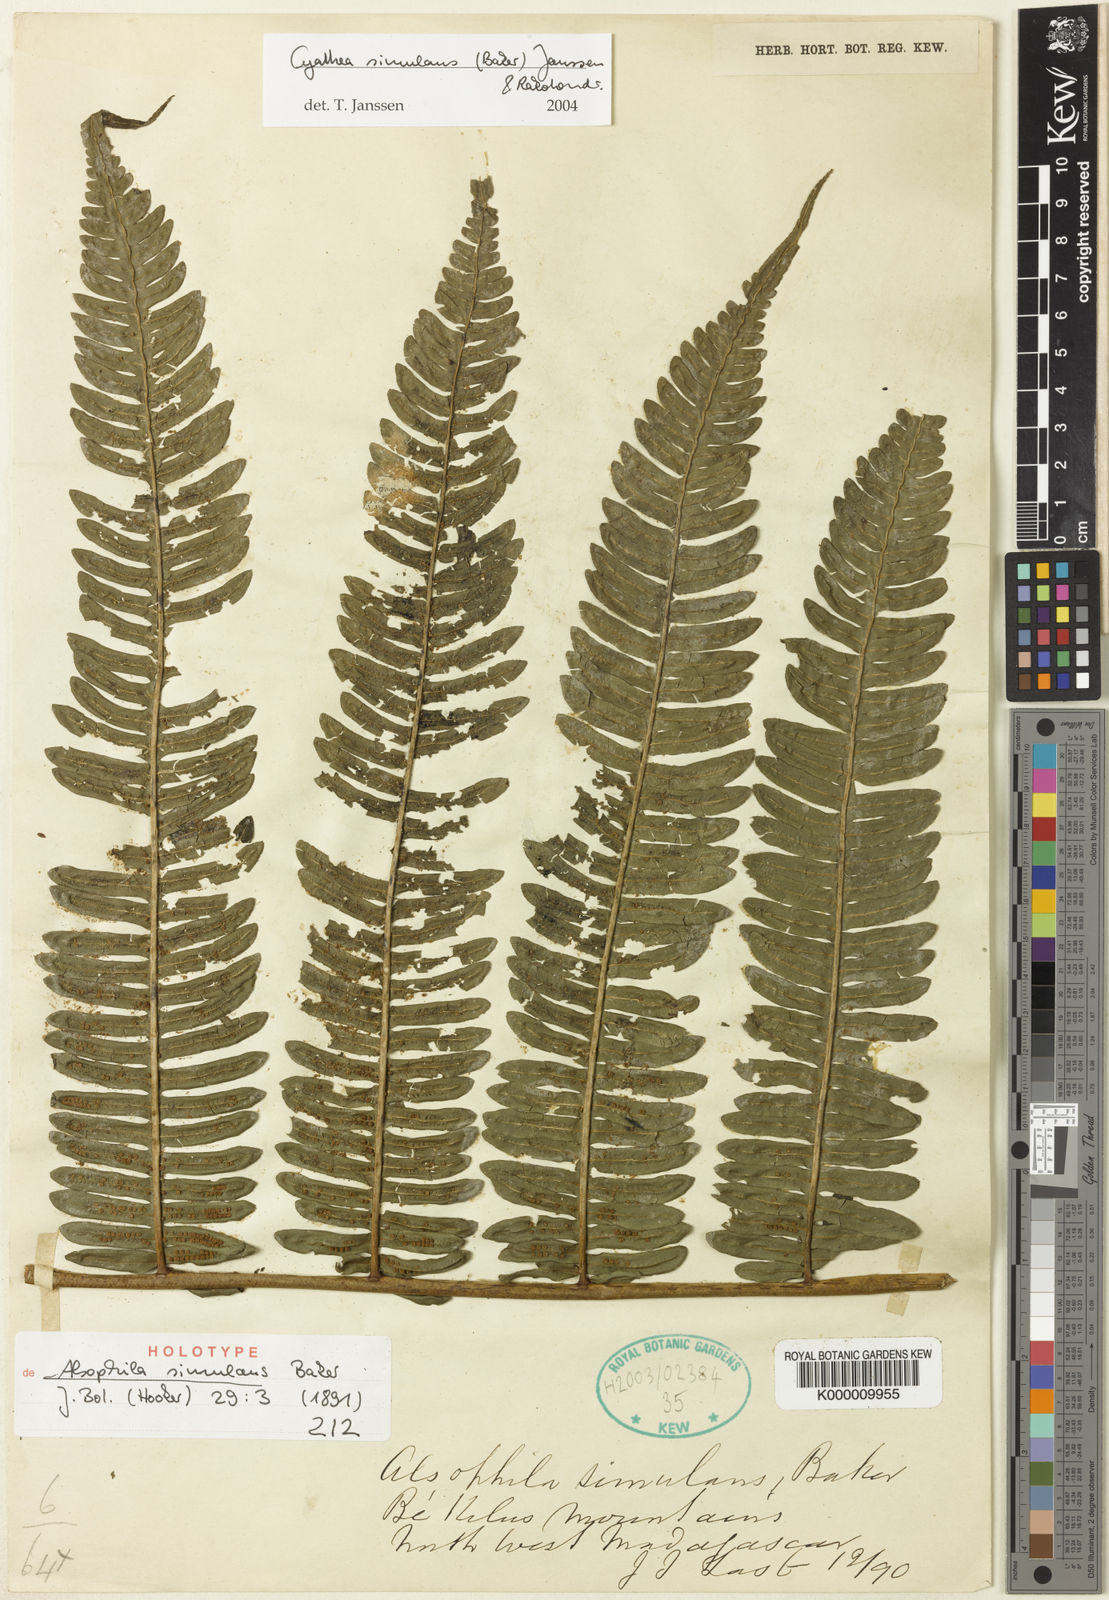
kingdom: Plantae
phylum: Tracheophyta
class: Polypodiopsida
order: Cyatheales
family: Cyatheaceae
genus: Cyathea
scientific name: Cyathea
